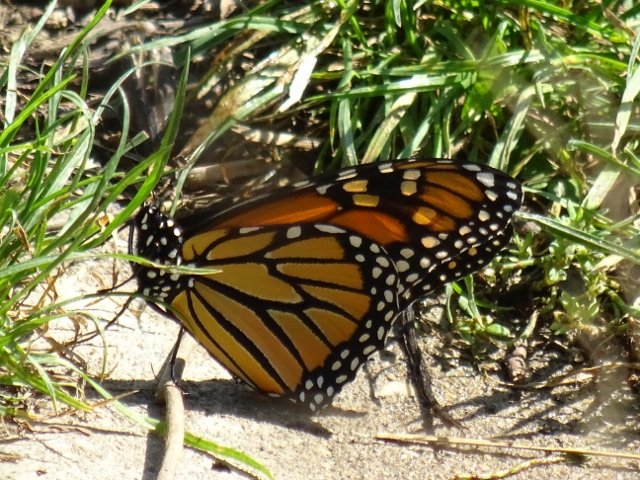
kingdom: Animalia
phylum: Arthropoda
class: Insecta
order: Lepidoptera
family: Nymphalidae
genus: Danaus
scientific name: Danaus plexippus
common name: Monarch
